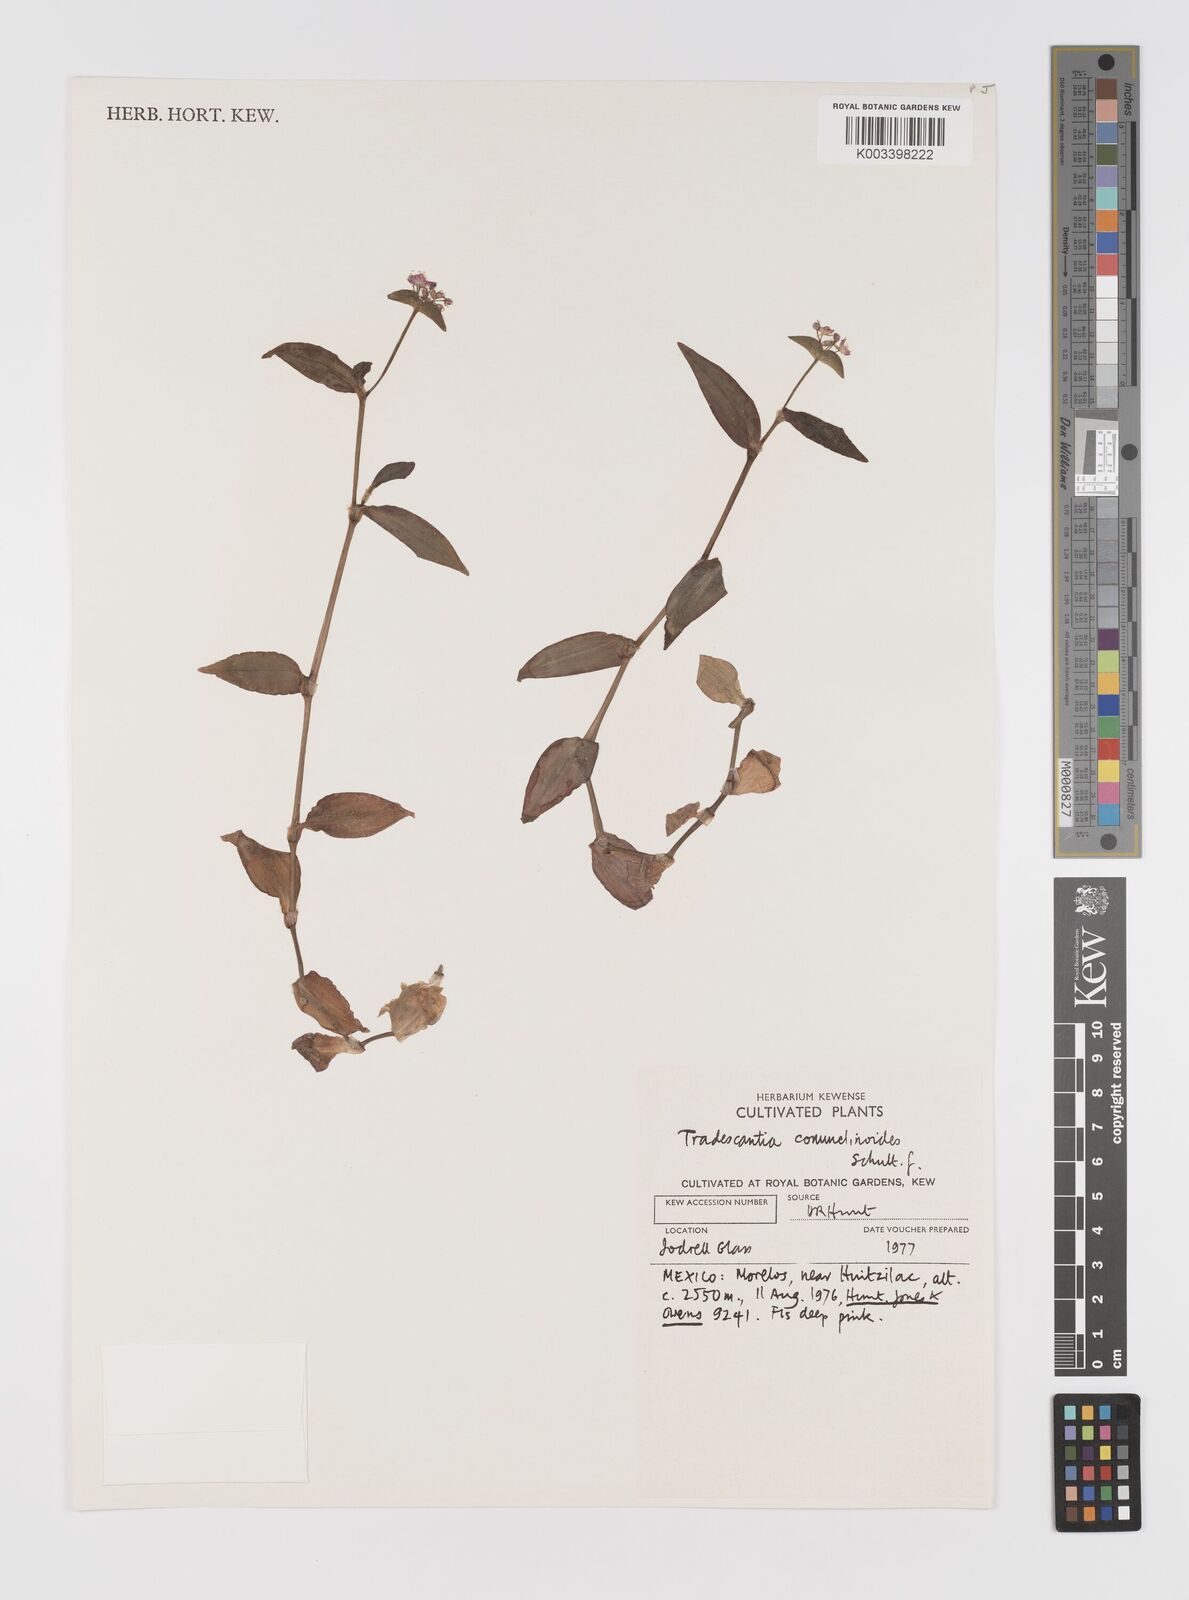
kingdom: Plantae
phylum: Tracheophyta
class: Liliopsida
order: Commelinales
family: Commelinaceae
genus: Tradescantia
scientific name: Tradescantia commelinoides
